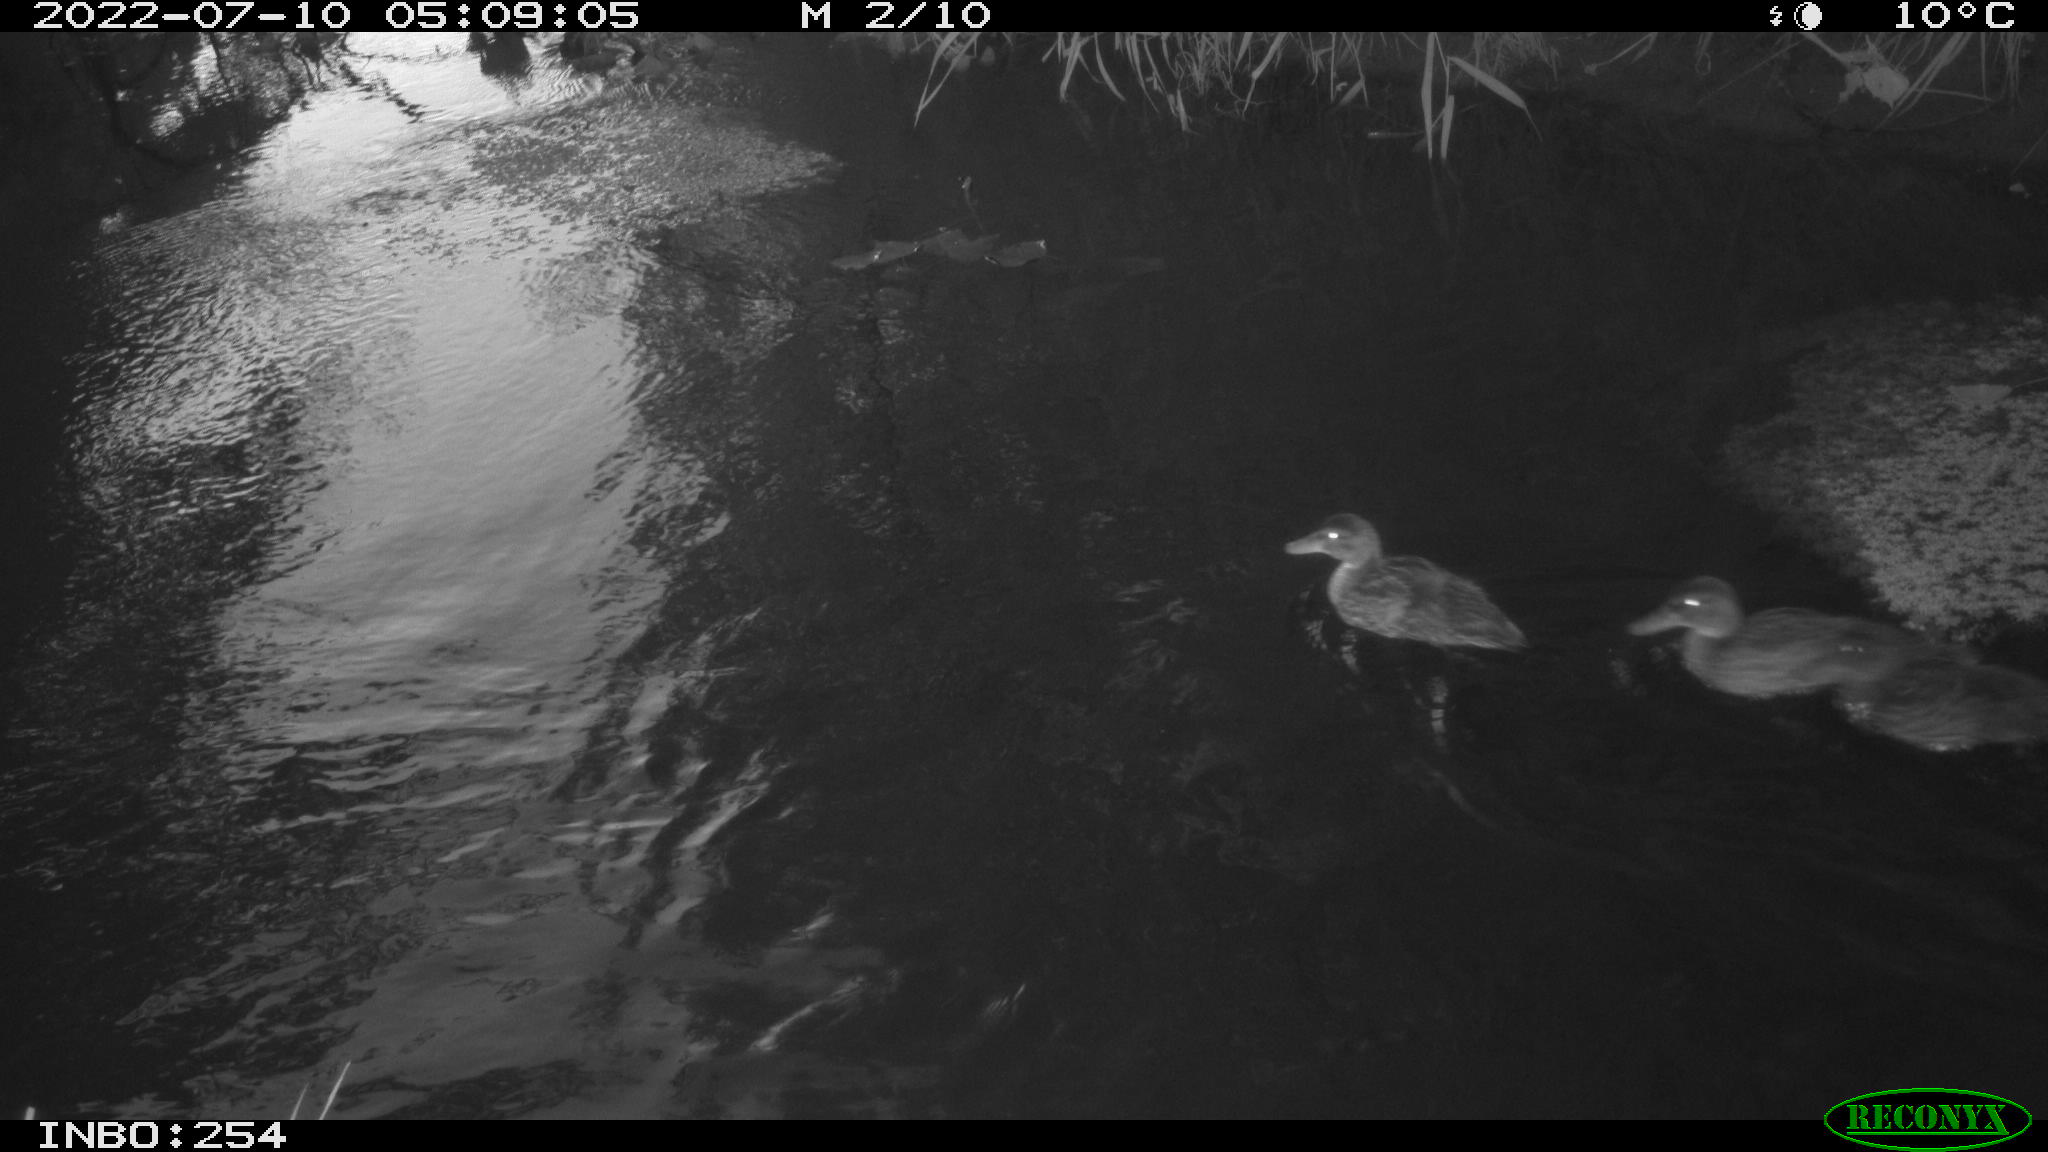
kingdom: Animalia
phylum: Chordata
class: Aves
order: Anseriformes
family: Anatidae
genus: Anas
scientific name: Anas platyrhynchos
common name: Mallard
